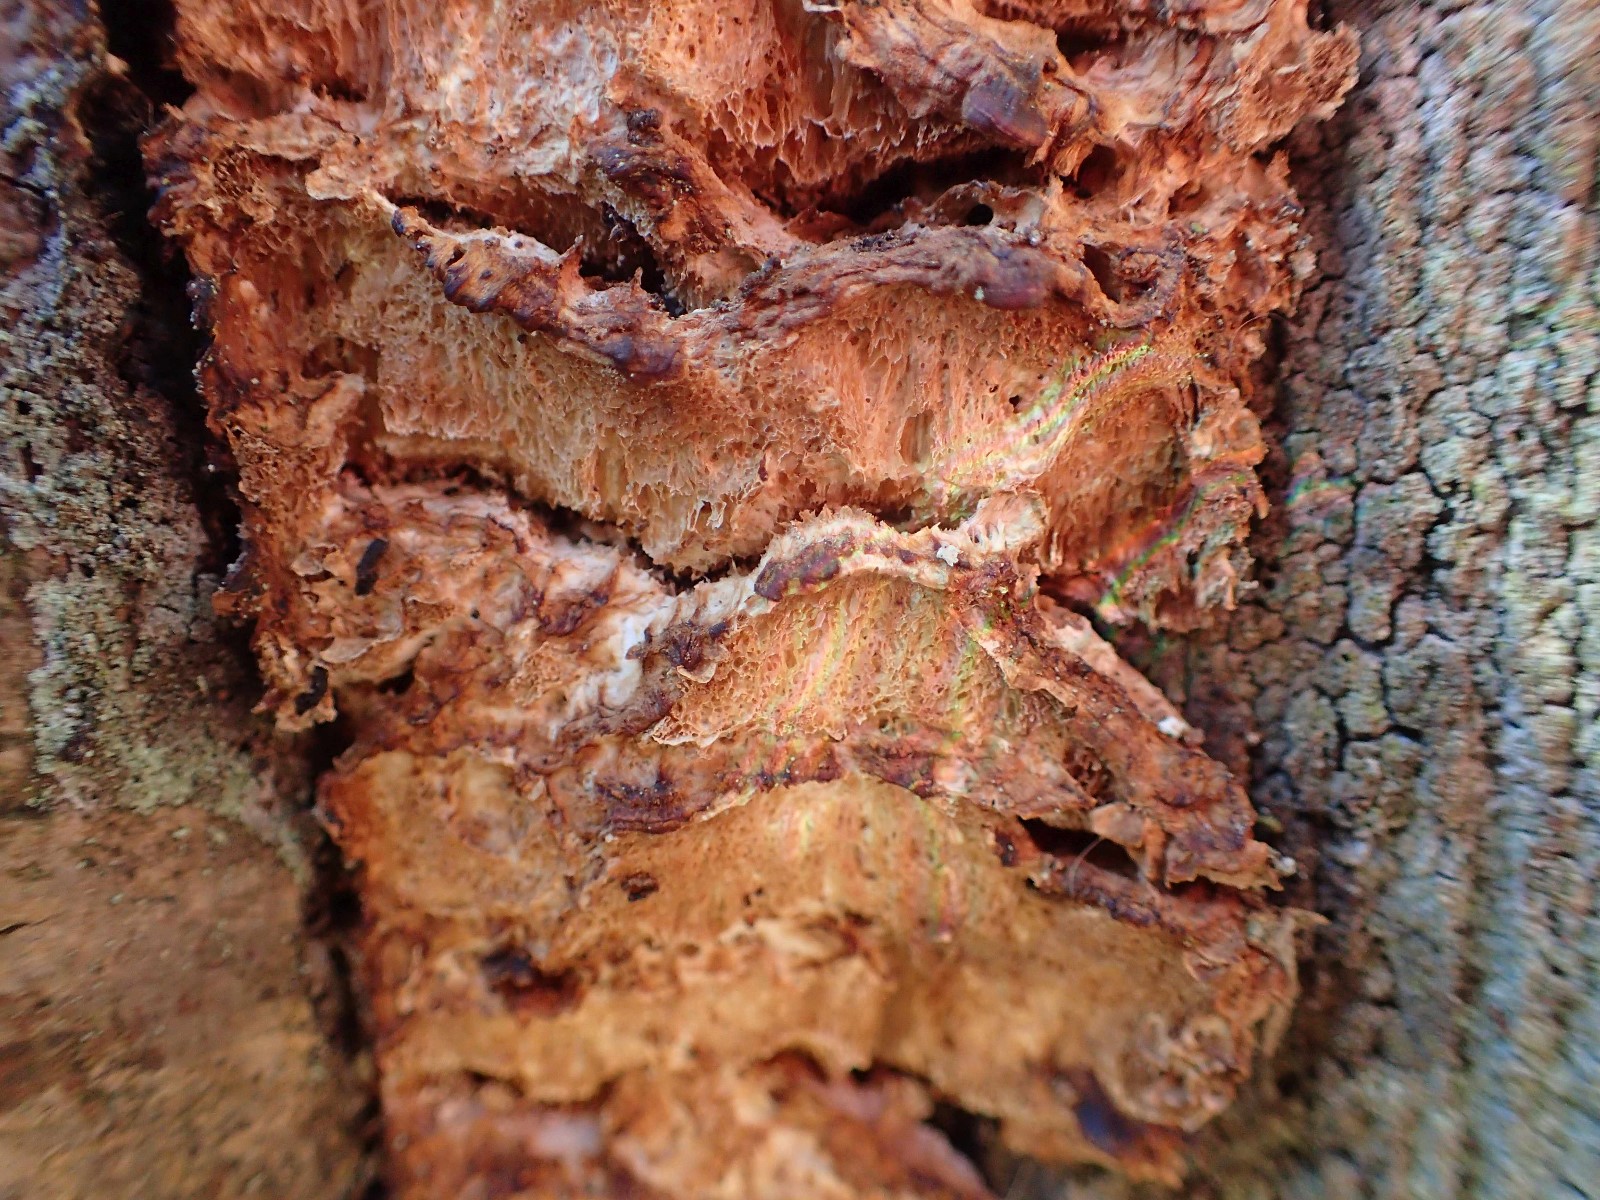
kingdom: Fungi
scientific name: Fungi
